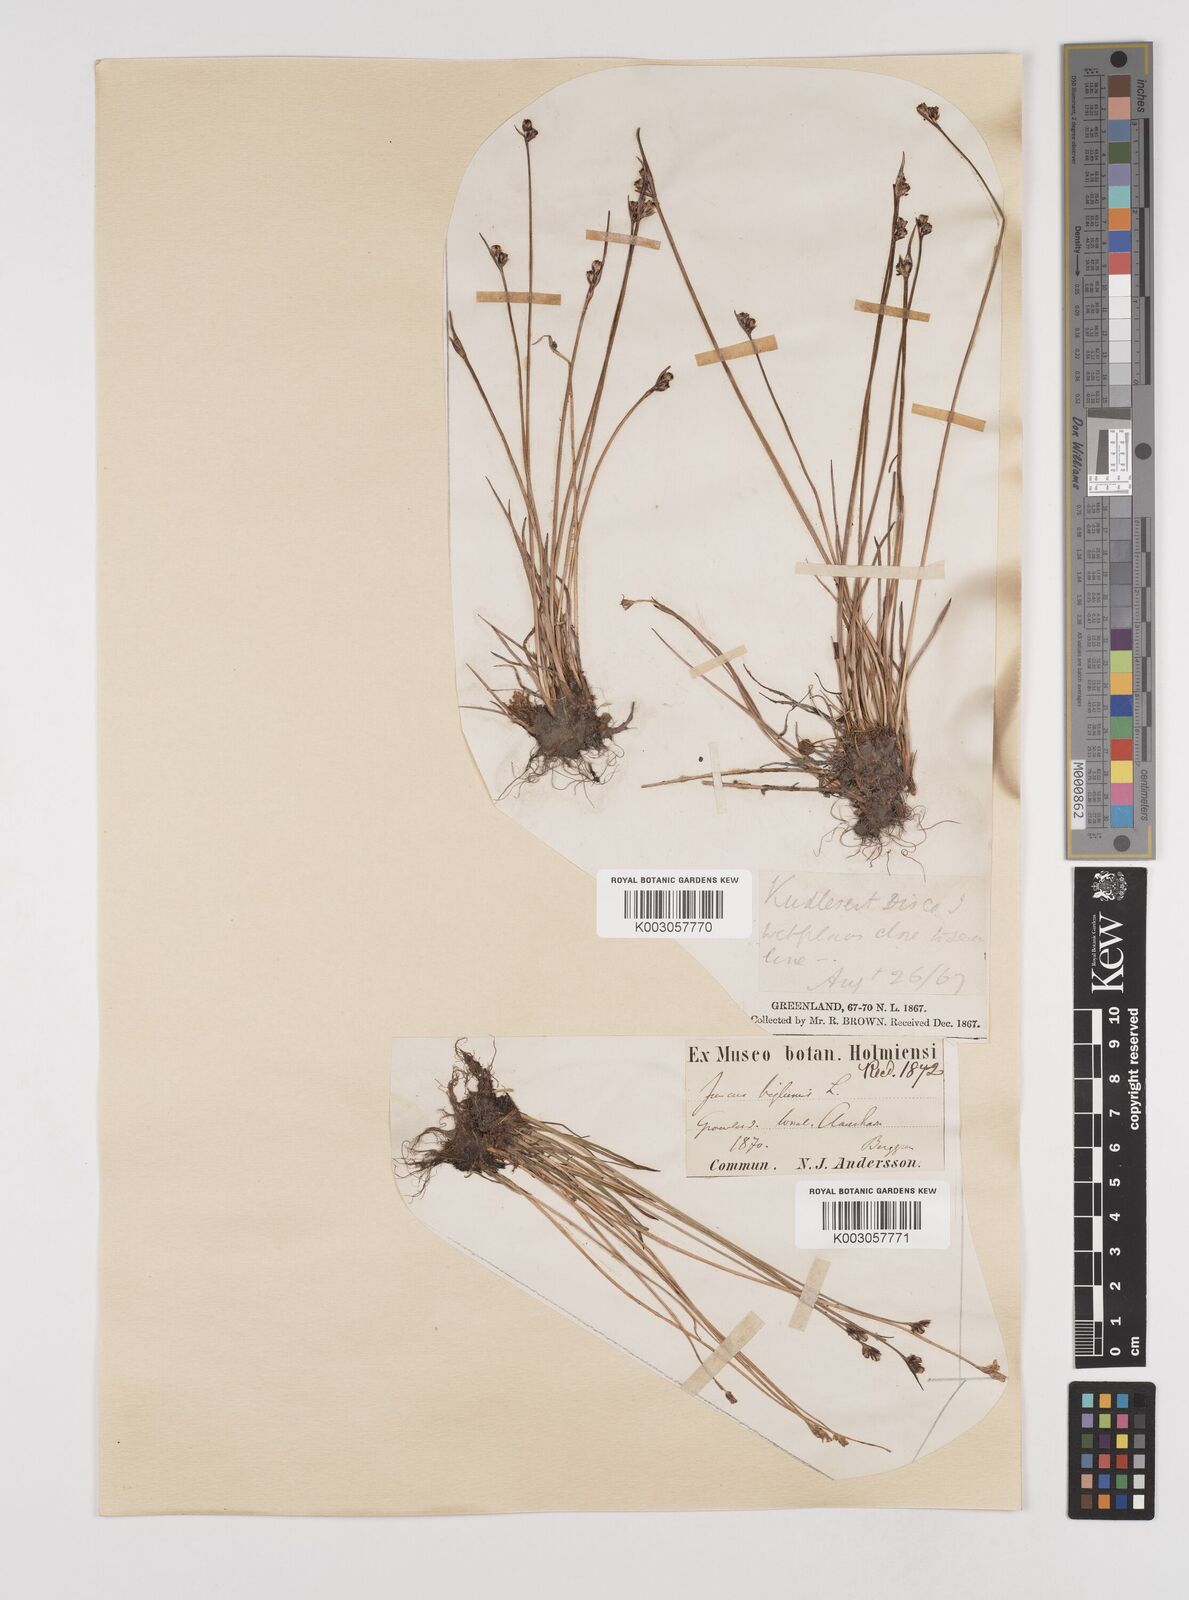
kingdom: Plantae
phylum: Tracheophyta
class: Liliopsida
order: Poales
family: Juncaceae
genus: Juncus
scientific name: Juncus biglumis
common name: Two-flowered rush
